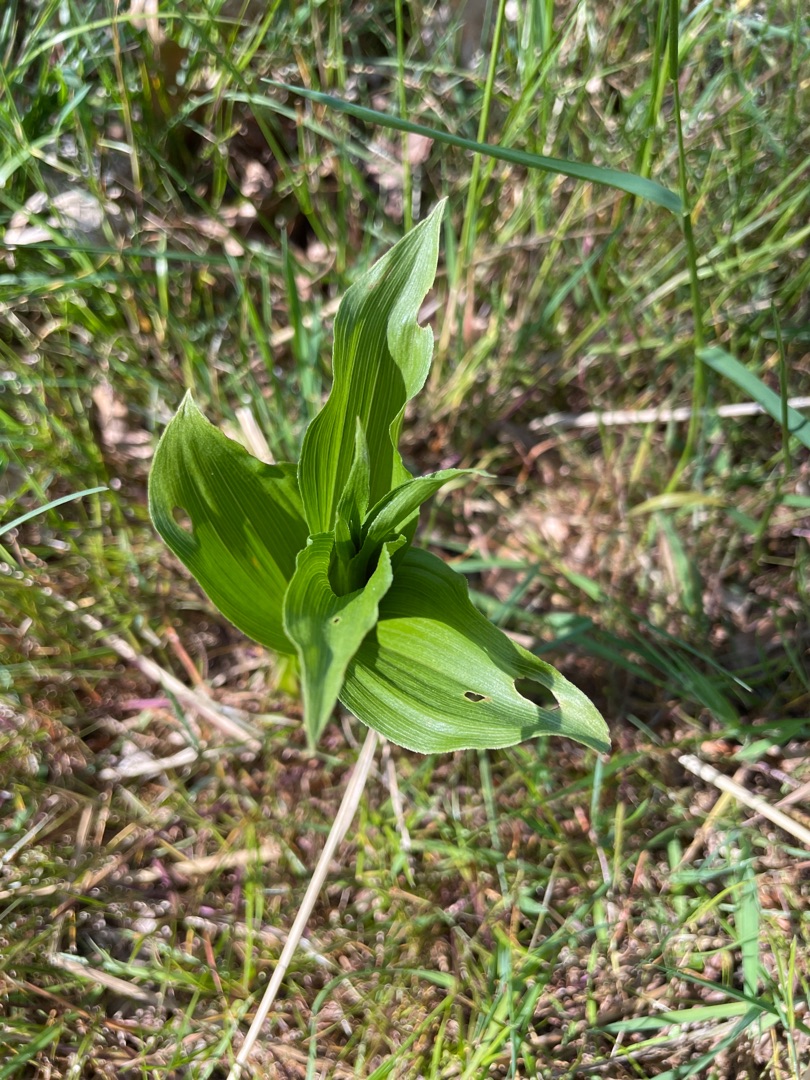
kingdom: Plantae
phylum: Tracheophyta
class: Liliopsida
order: Asparagales
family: Orchidaceae
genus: Epipactis
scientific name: Epipactis helleborine
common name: Skov-hullæbe
